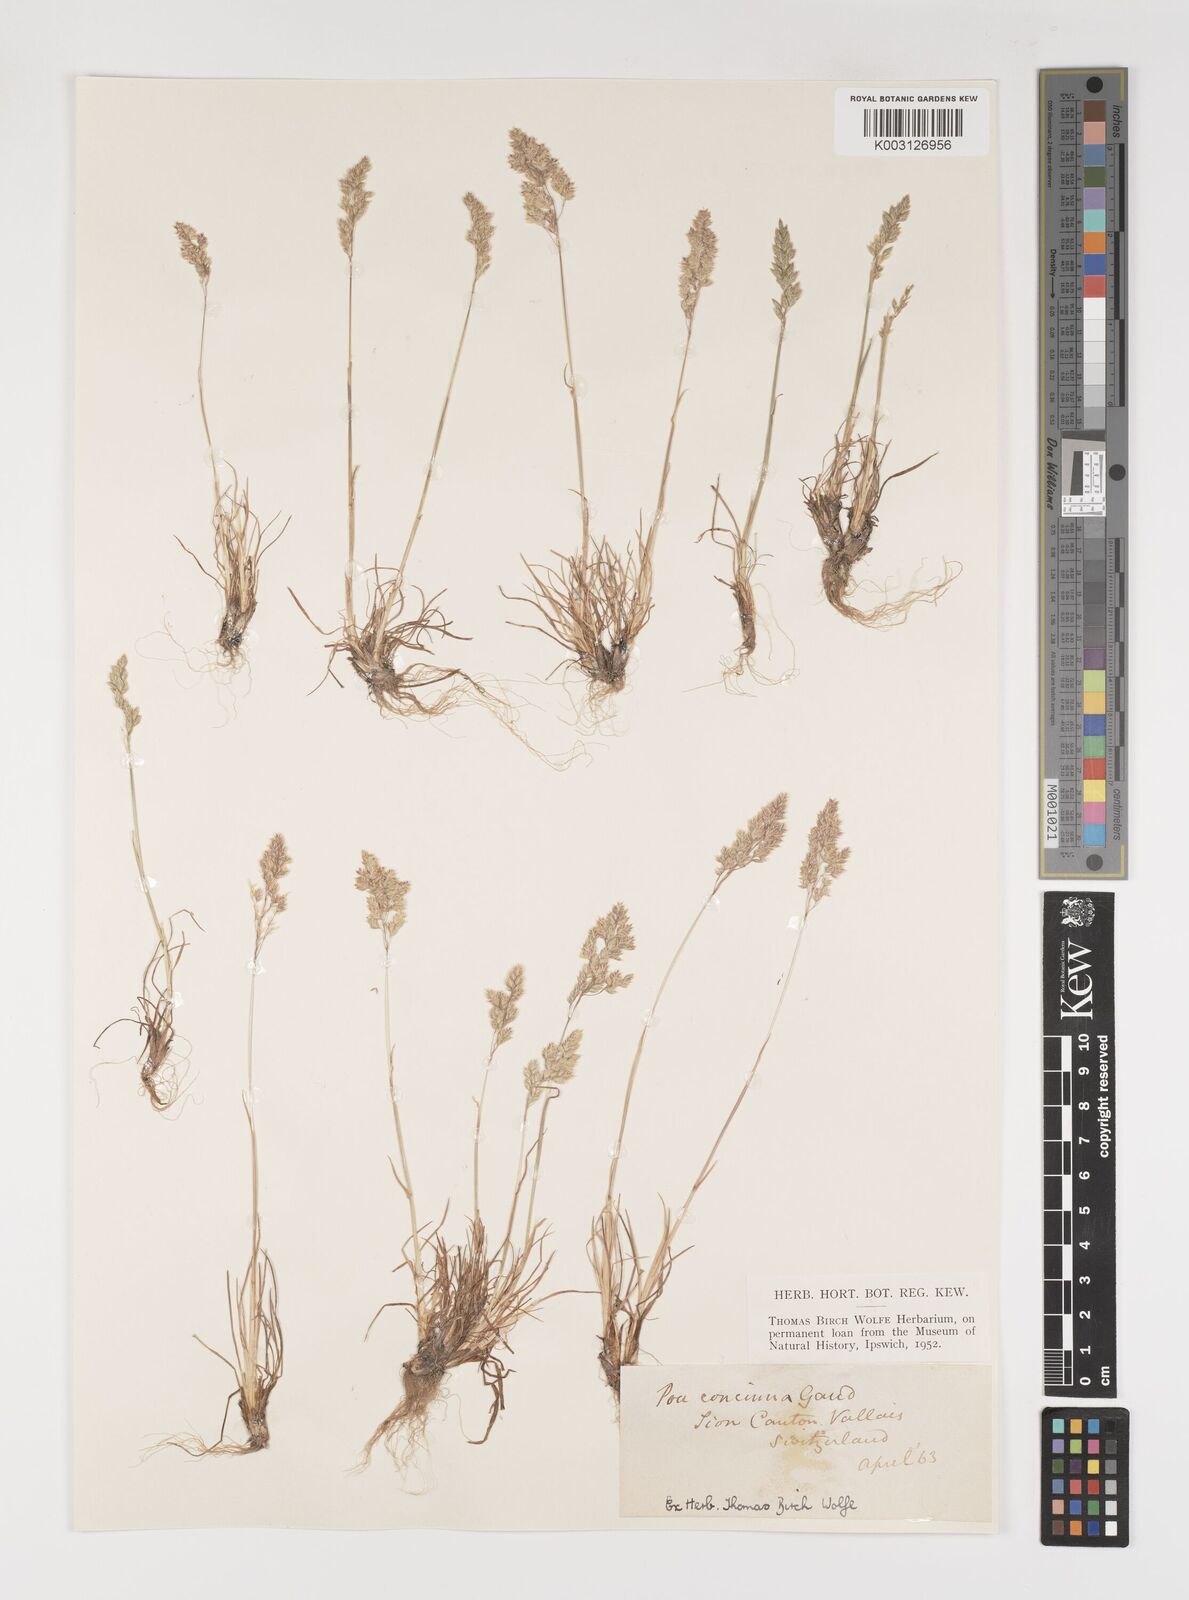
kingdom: Plantae
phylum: Tracheophyta
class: Liliopsida
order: Poales
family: Poaceae
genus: Poa
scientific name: Poa perconcinna
